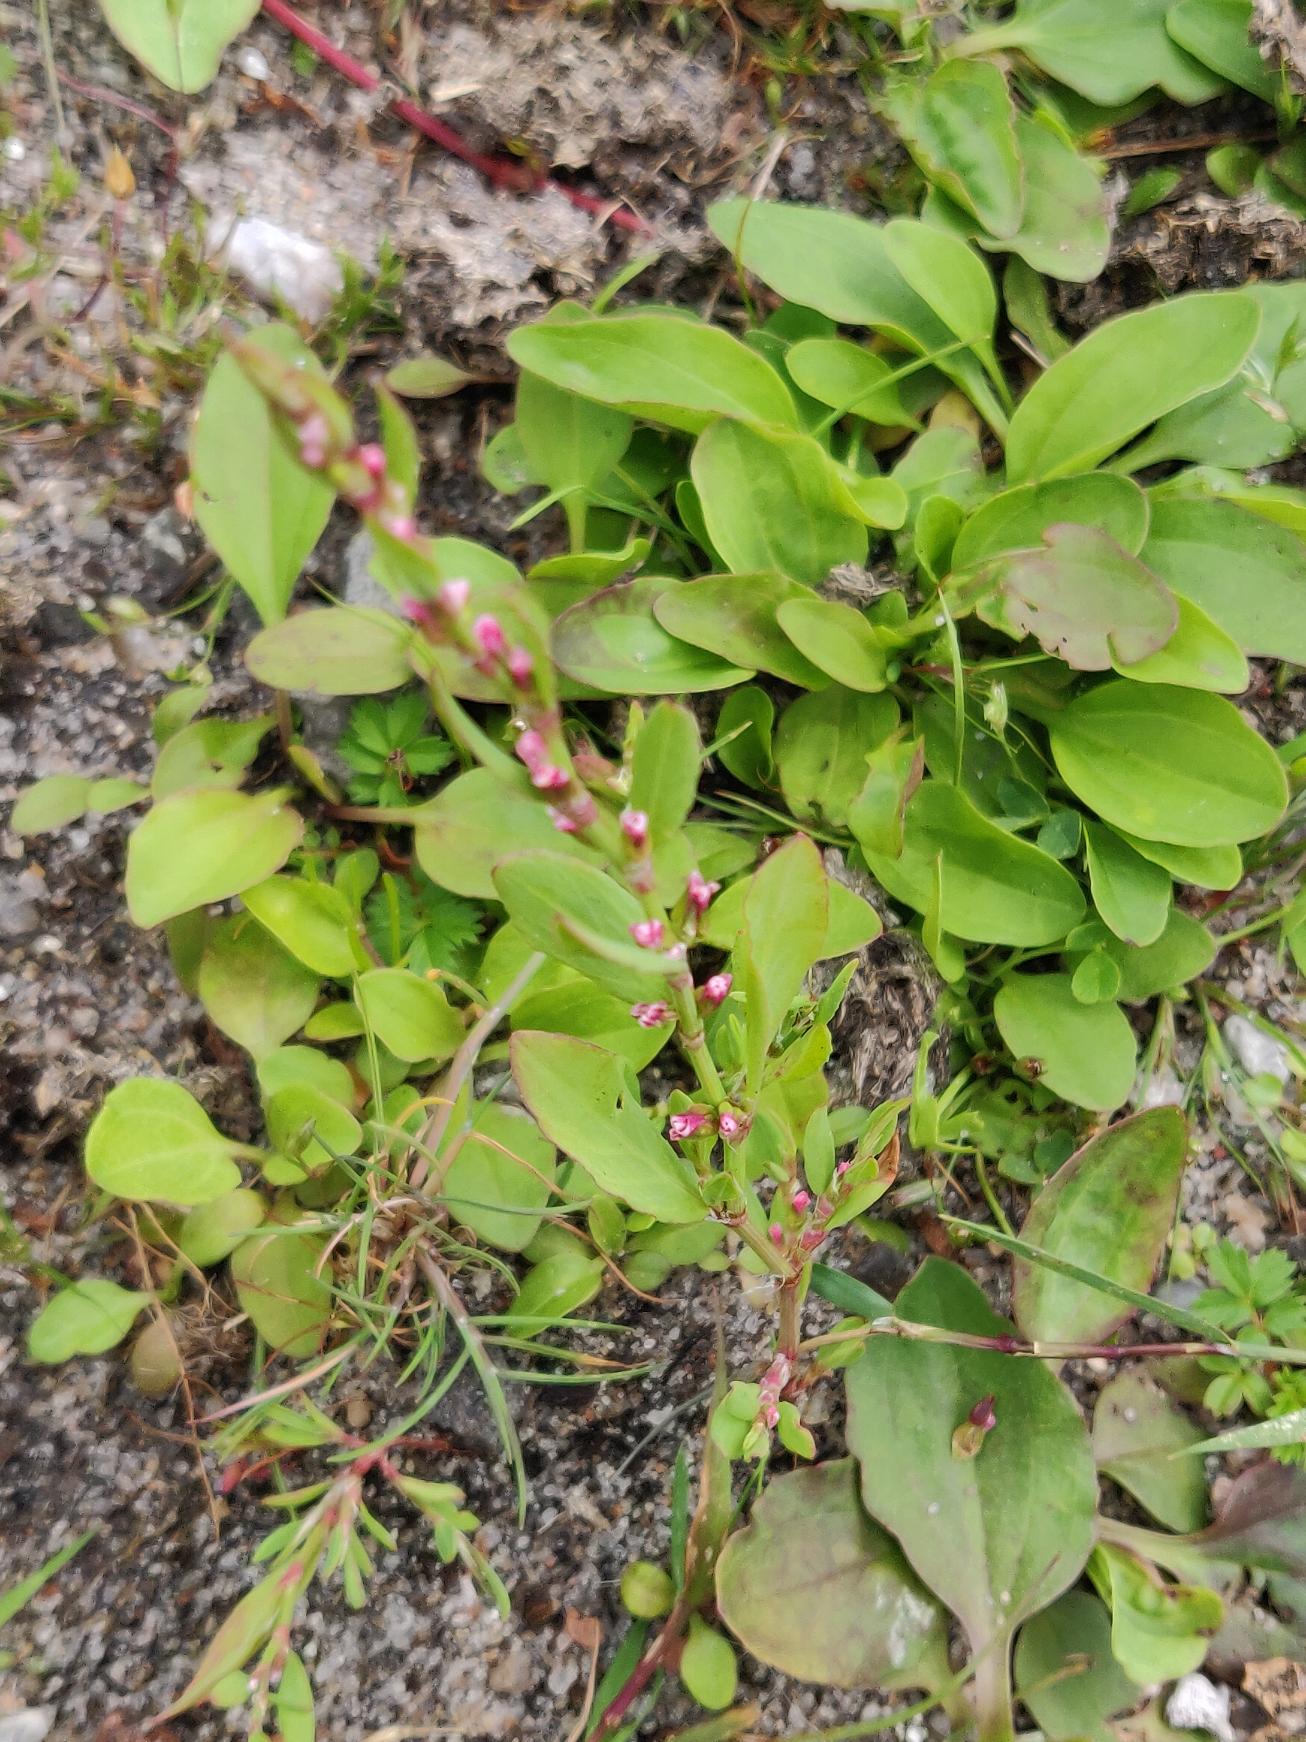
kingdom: Plantae
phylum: Tracheophyta
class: Magnoliopsida
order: Caryophyllales
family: Polygonaceae
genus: Polygonum
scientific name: Polygonum aviculare
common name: Vej-pileurt (underart)
